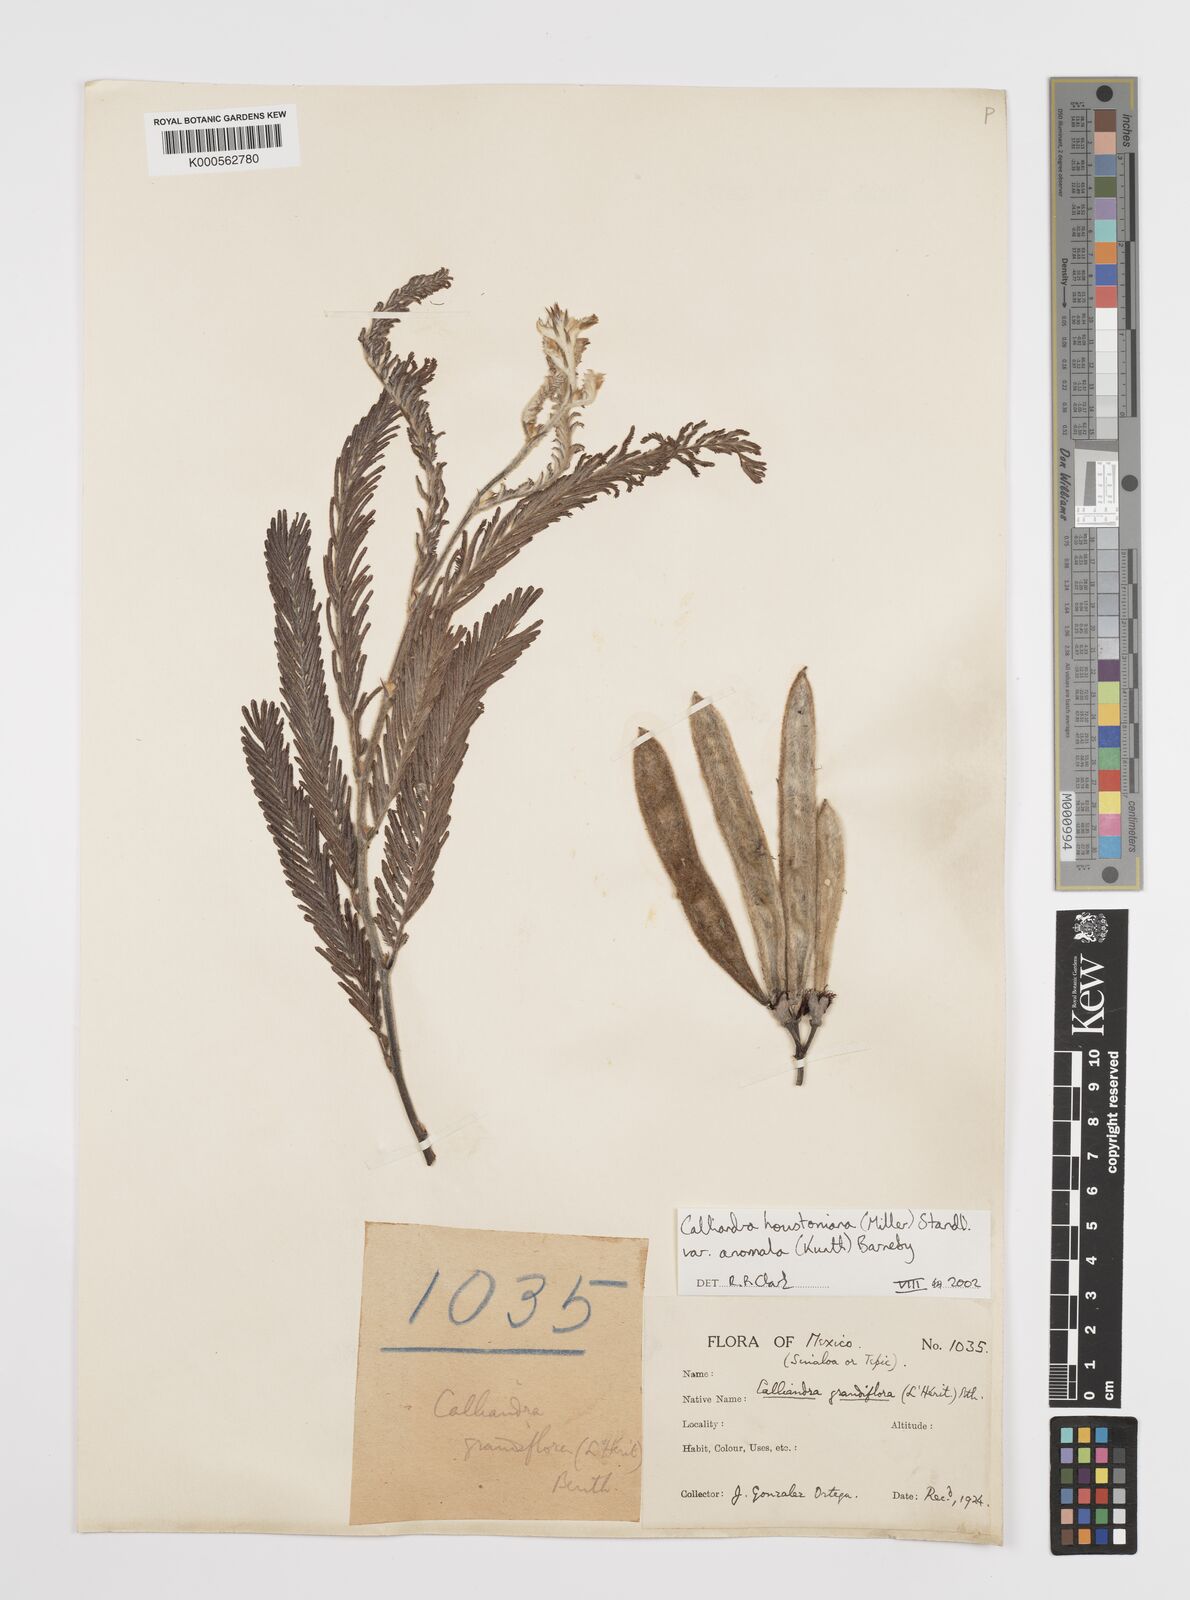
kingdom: Plantae
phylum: Tracheophyta
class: Magnoliopsida
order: Fabales
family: Fabaceae
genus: Calliandra
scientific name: Calliandra houstoniana
